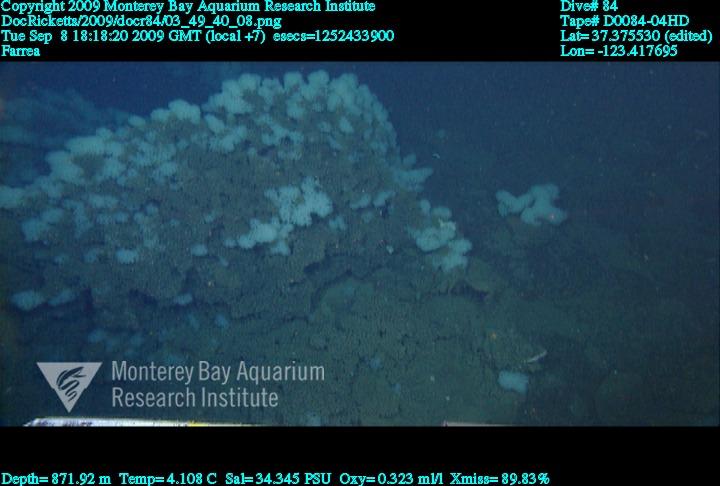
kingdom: Animalia
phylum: Porifera
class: Hexactinellida
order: Sceptrulophora
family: Farreidae
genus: Farrea
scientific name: Farrea
